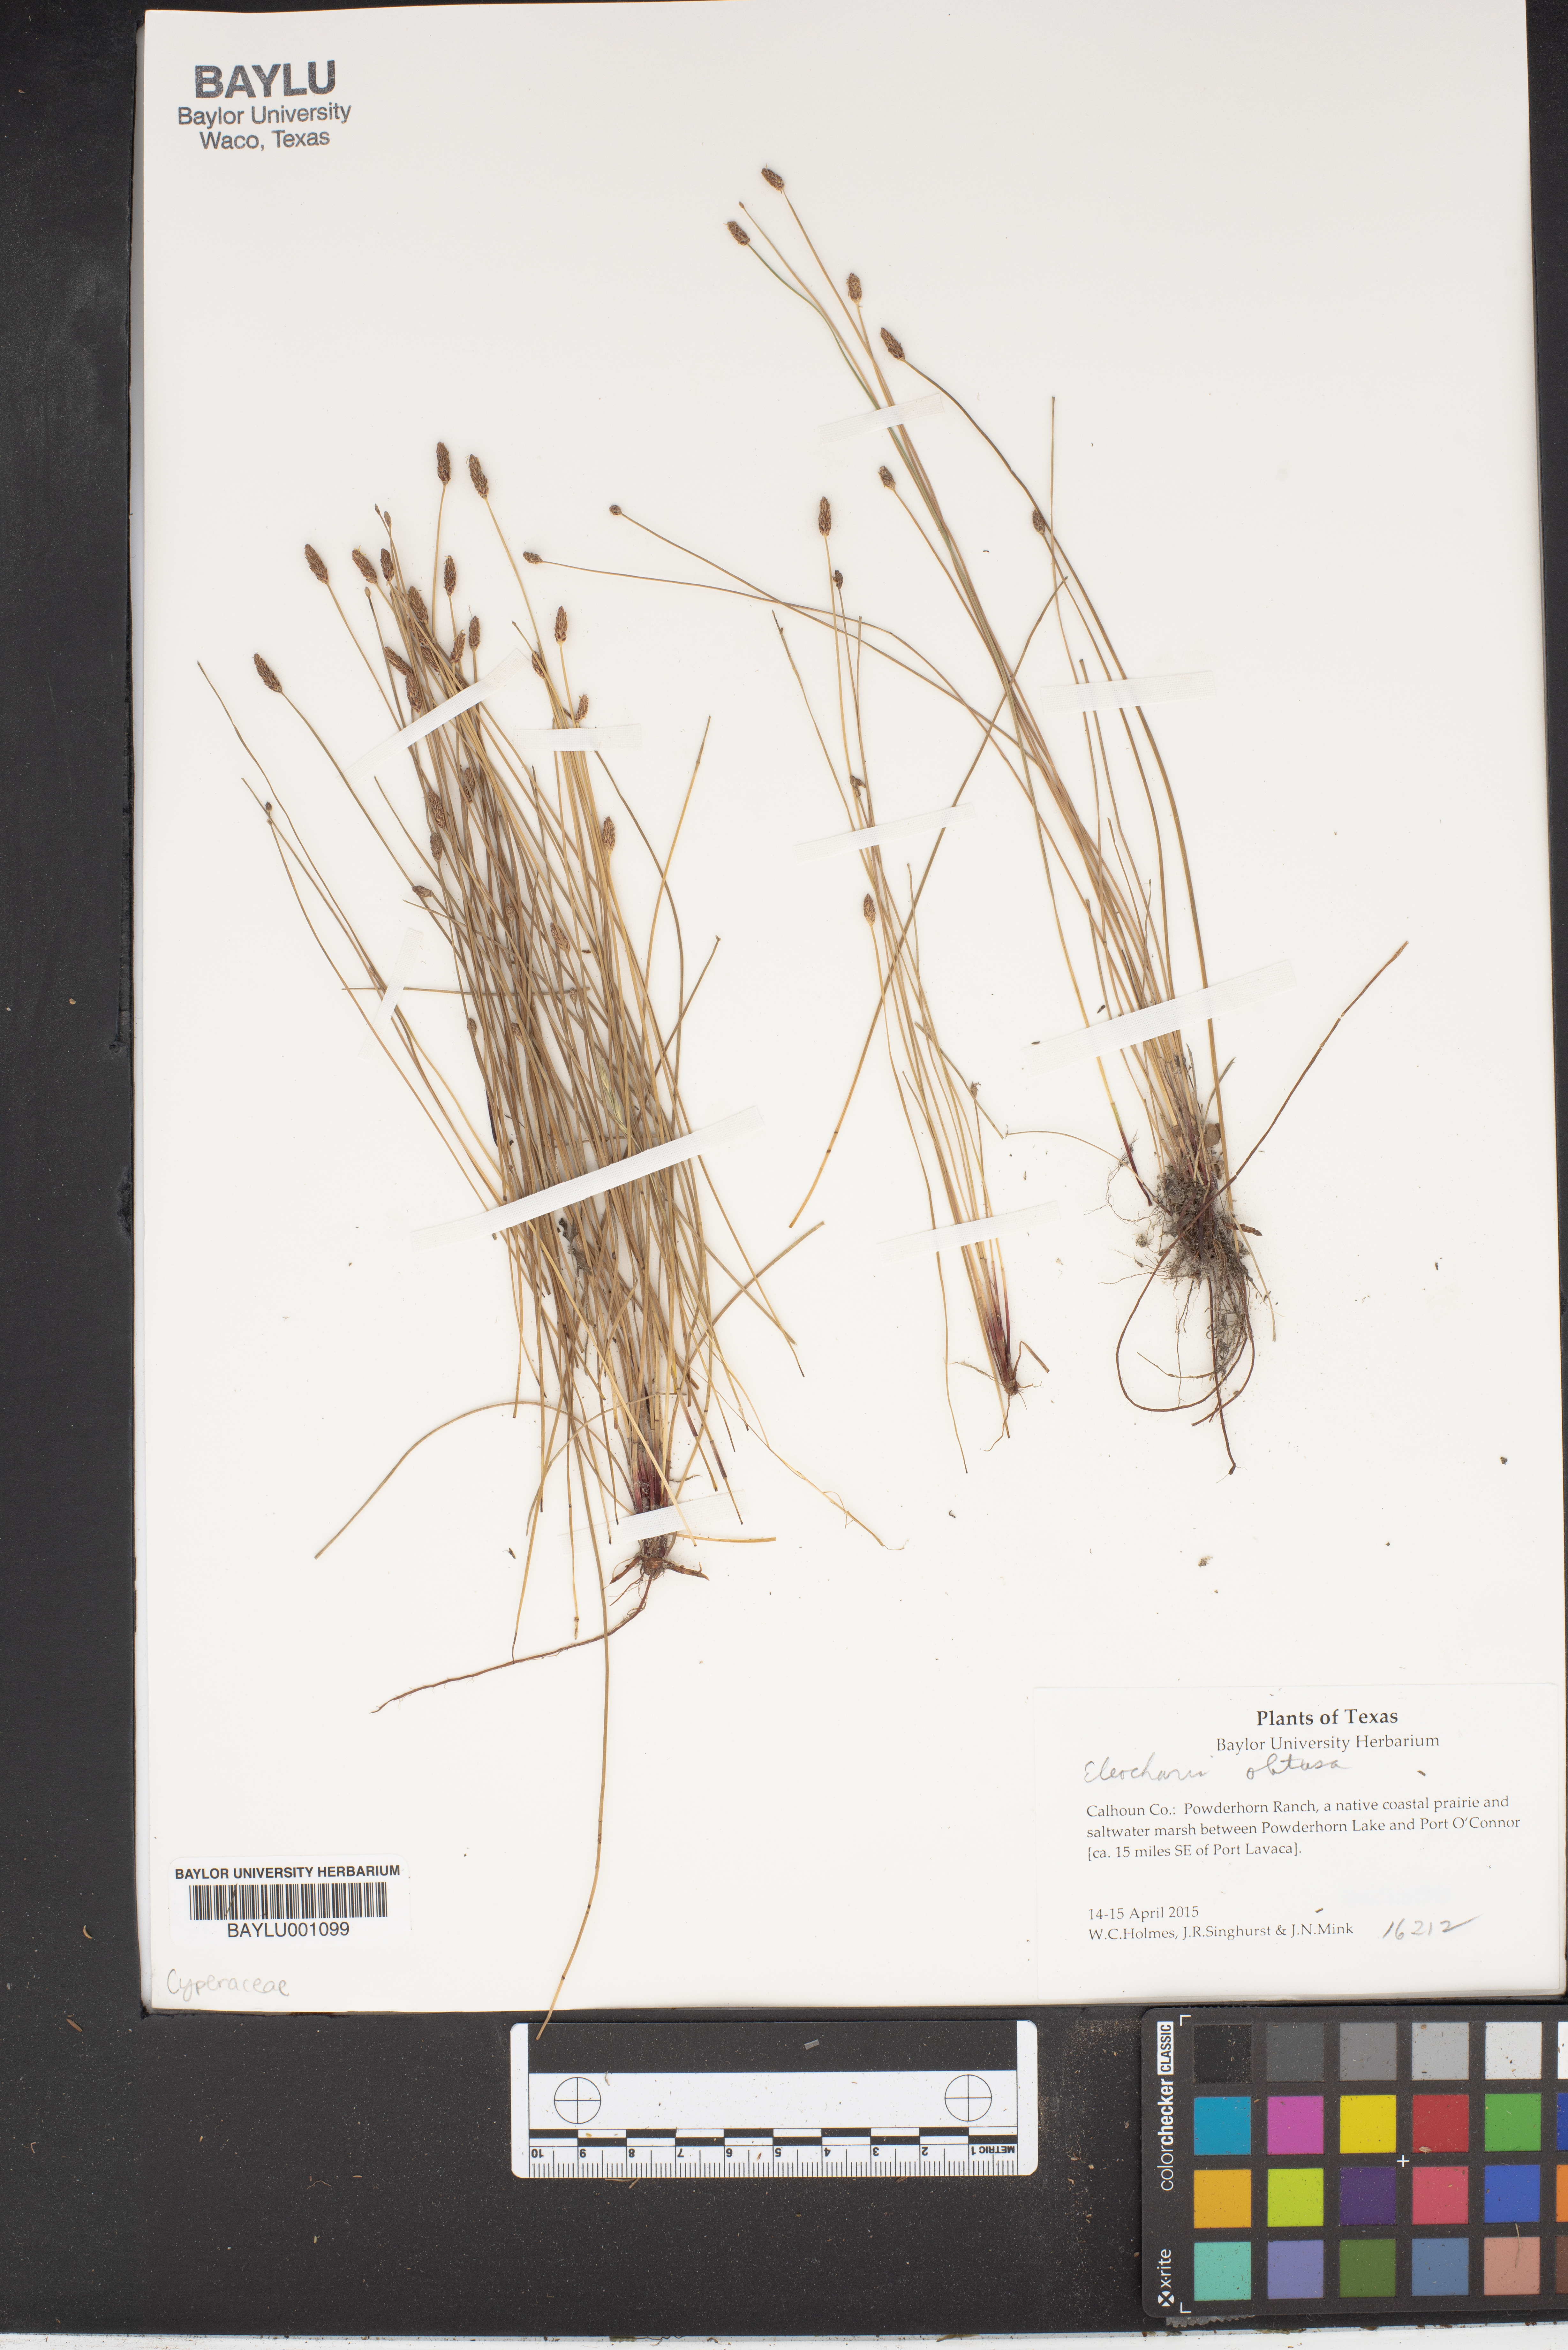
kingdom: Plantae
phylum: Tracheophyta
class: Liliopsida
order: Poales
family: Cyperaceae
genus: Eleocharis
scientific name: Eleocharis obtusa
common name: Blunt spikerush
